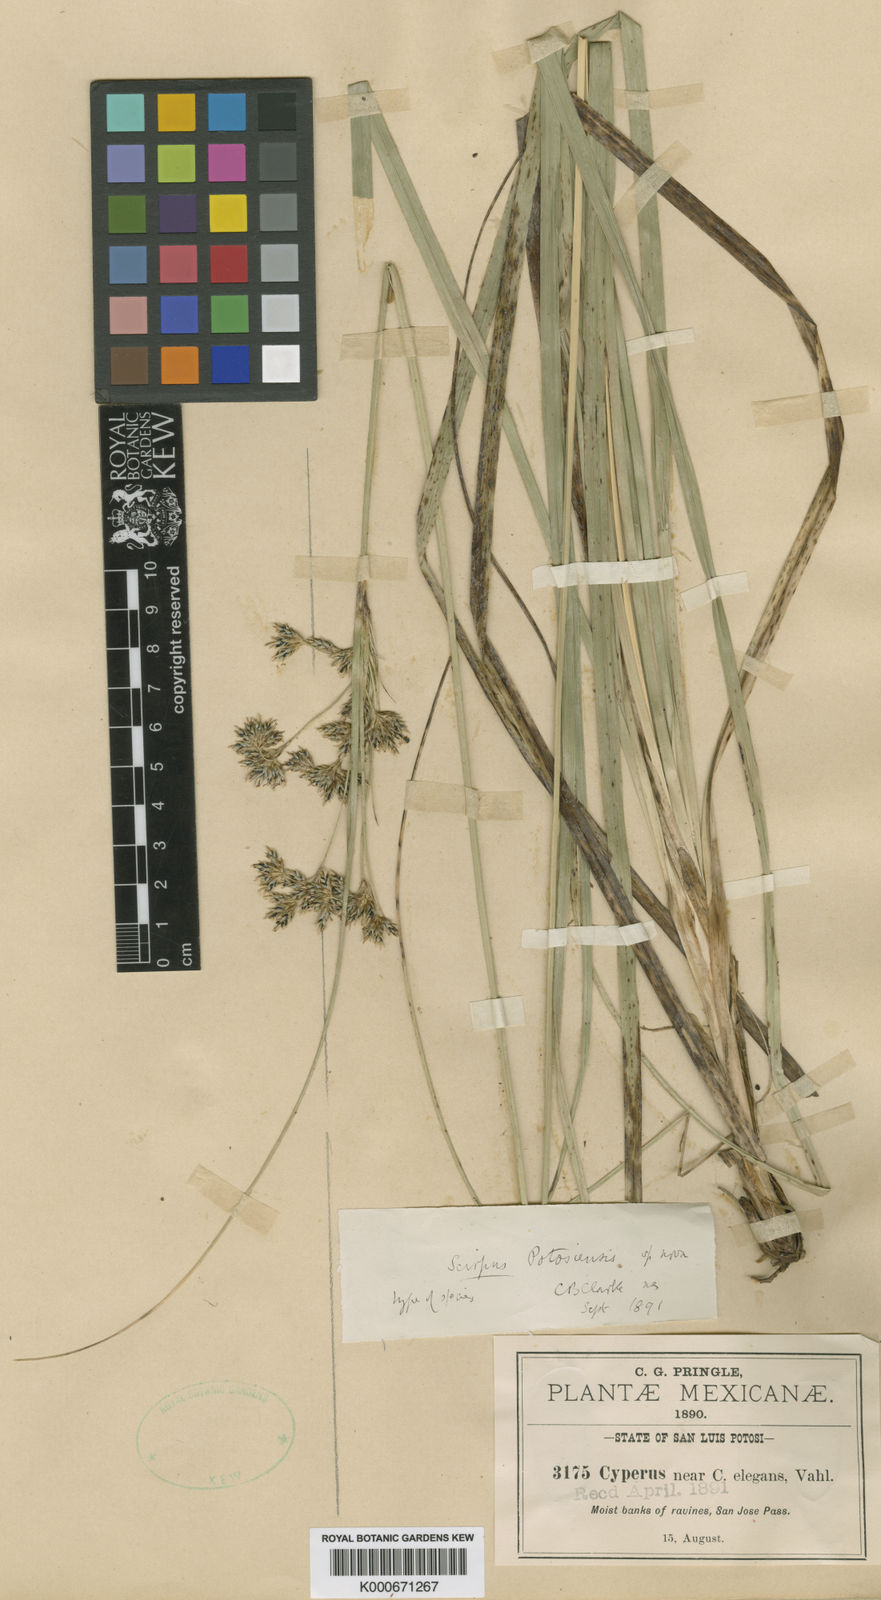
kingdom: Plantae
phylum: Tracheophyta
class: Liliopsida
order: Poales
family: Cyperaceae
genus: Cyperus
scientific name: Cyperus elegans
